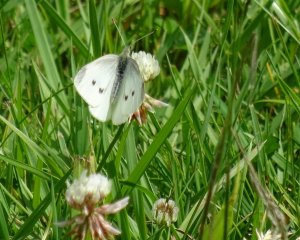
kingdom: Animalia
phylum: Arthropoda
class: Insecta
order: Lepidoptera
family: Pieridae
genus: Pieris
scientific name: Pieris rapae
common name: Cabbage White
